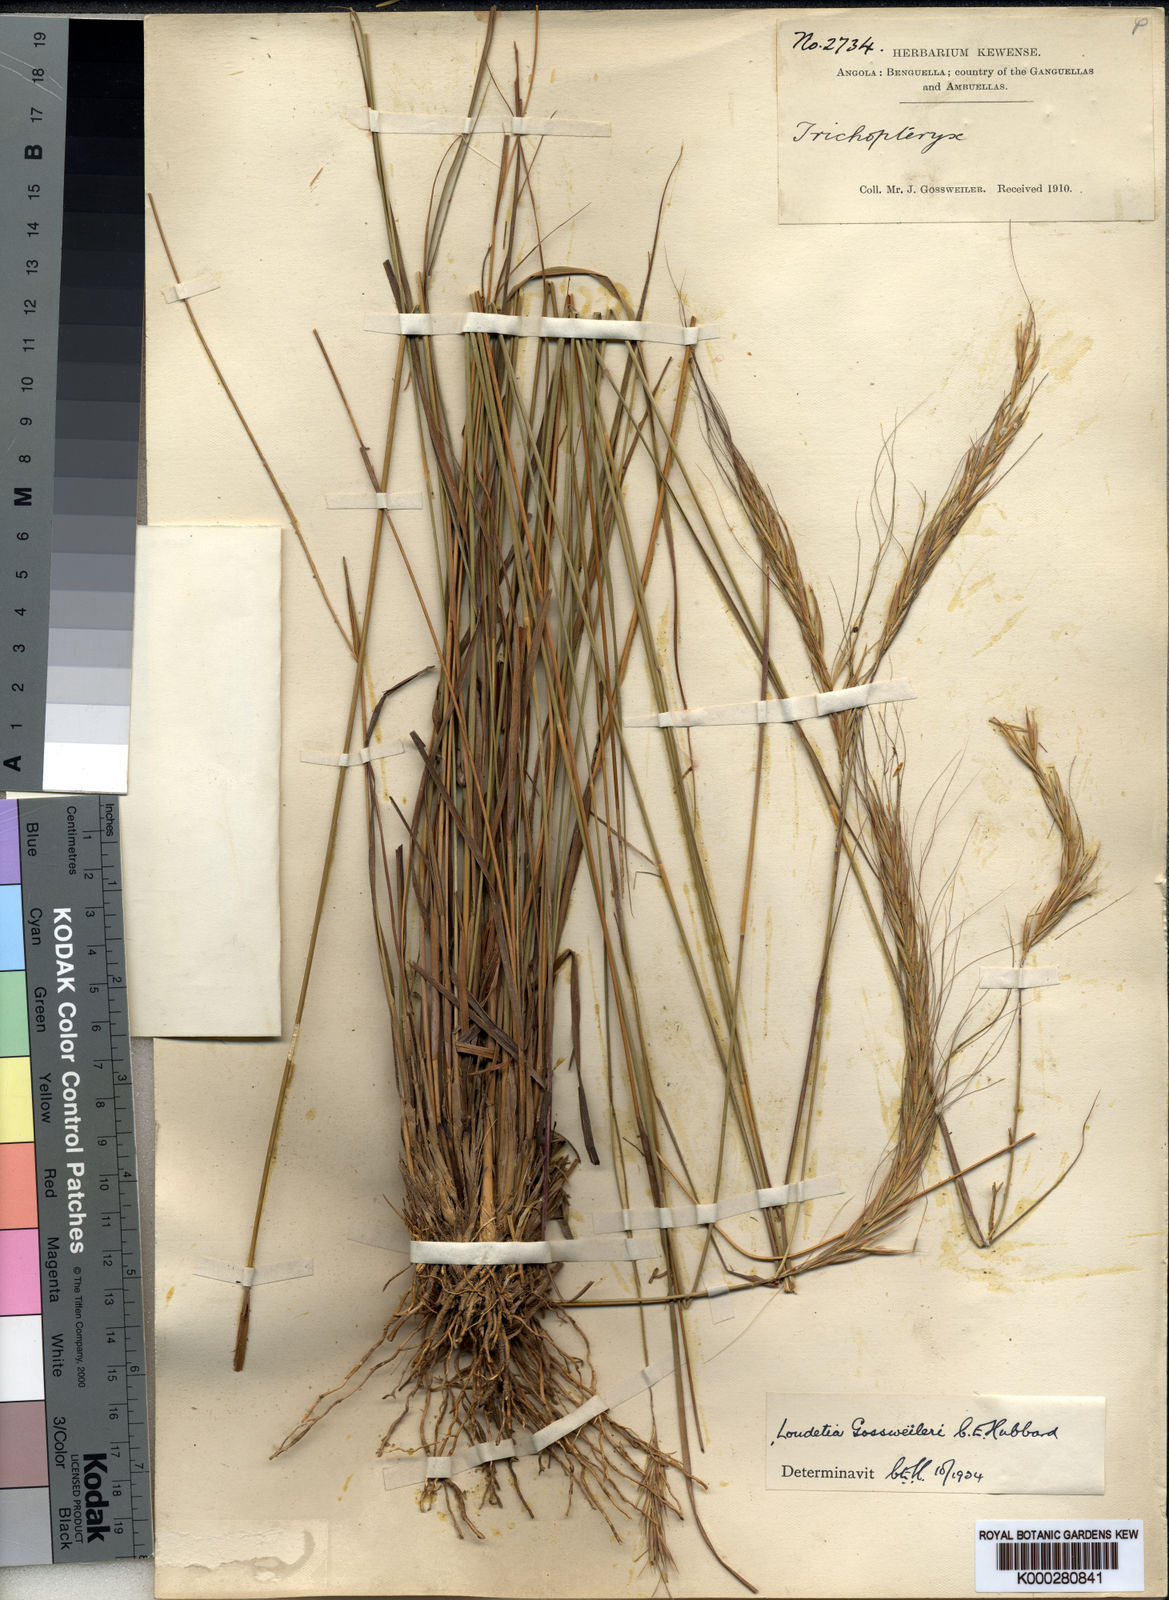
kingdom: Plantae
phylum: Tracheophyta
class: Liliopsida
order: Poales
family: Poaceae
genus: Loudetia
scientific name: Loudetia densispica
